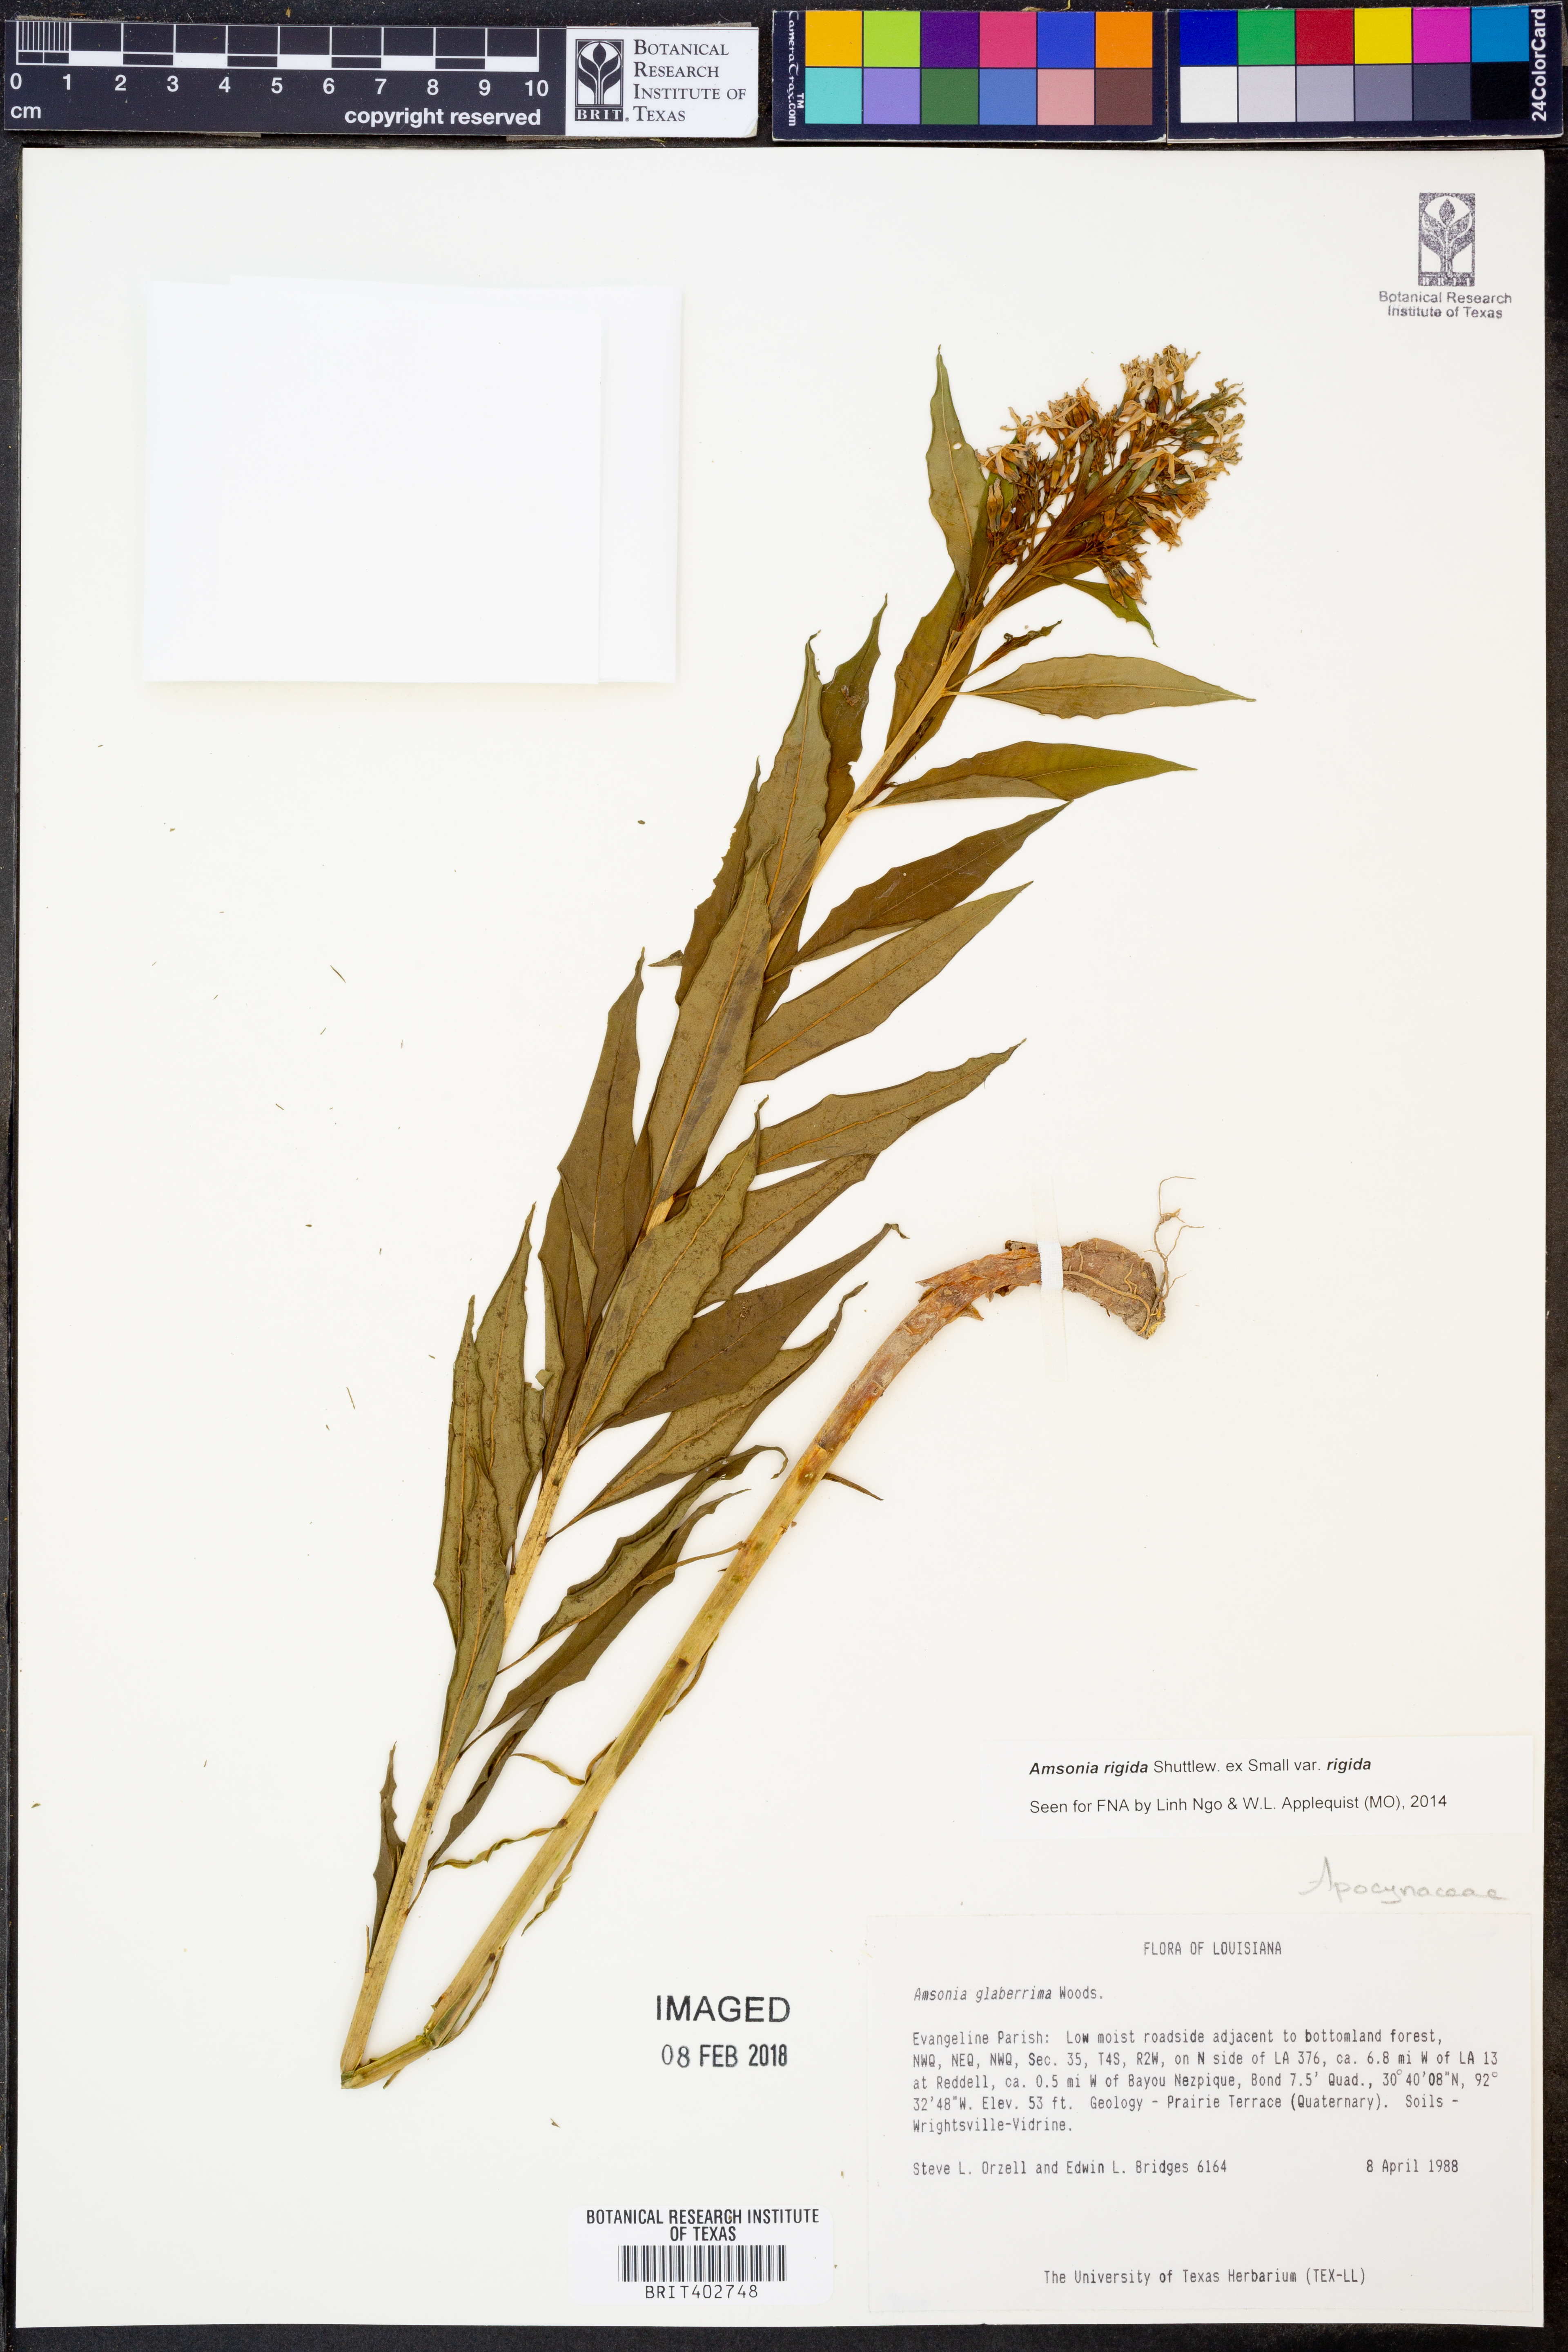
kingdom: Plantae
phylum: Tracheophyta
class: Magnoliopsida
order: Gentianales
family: Apocynaceae
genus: Amsonia
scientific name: Amsonia rigida
